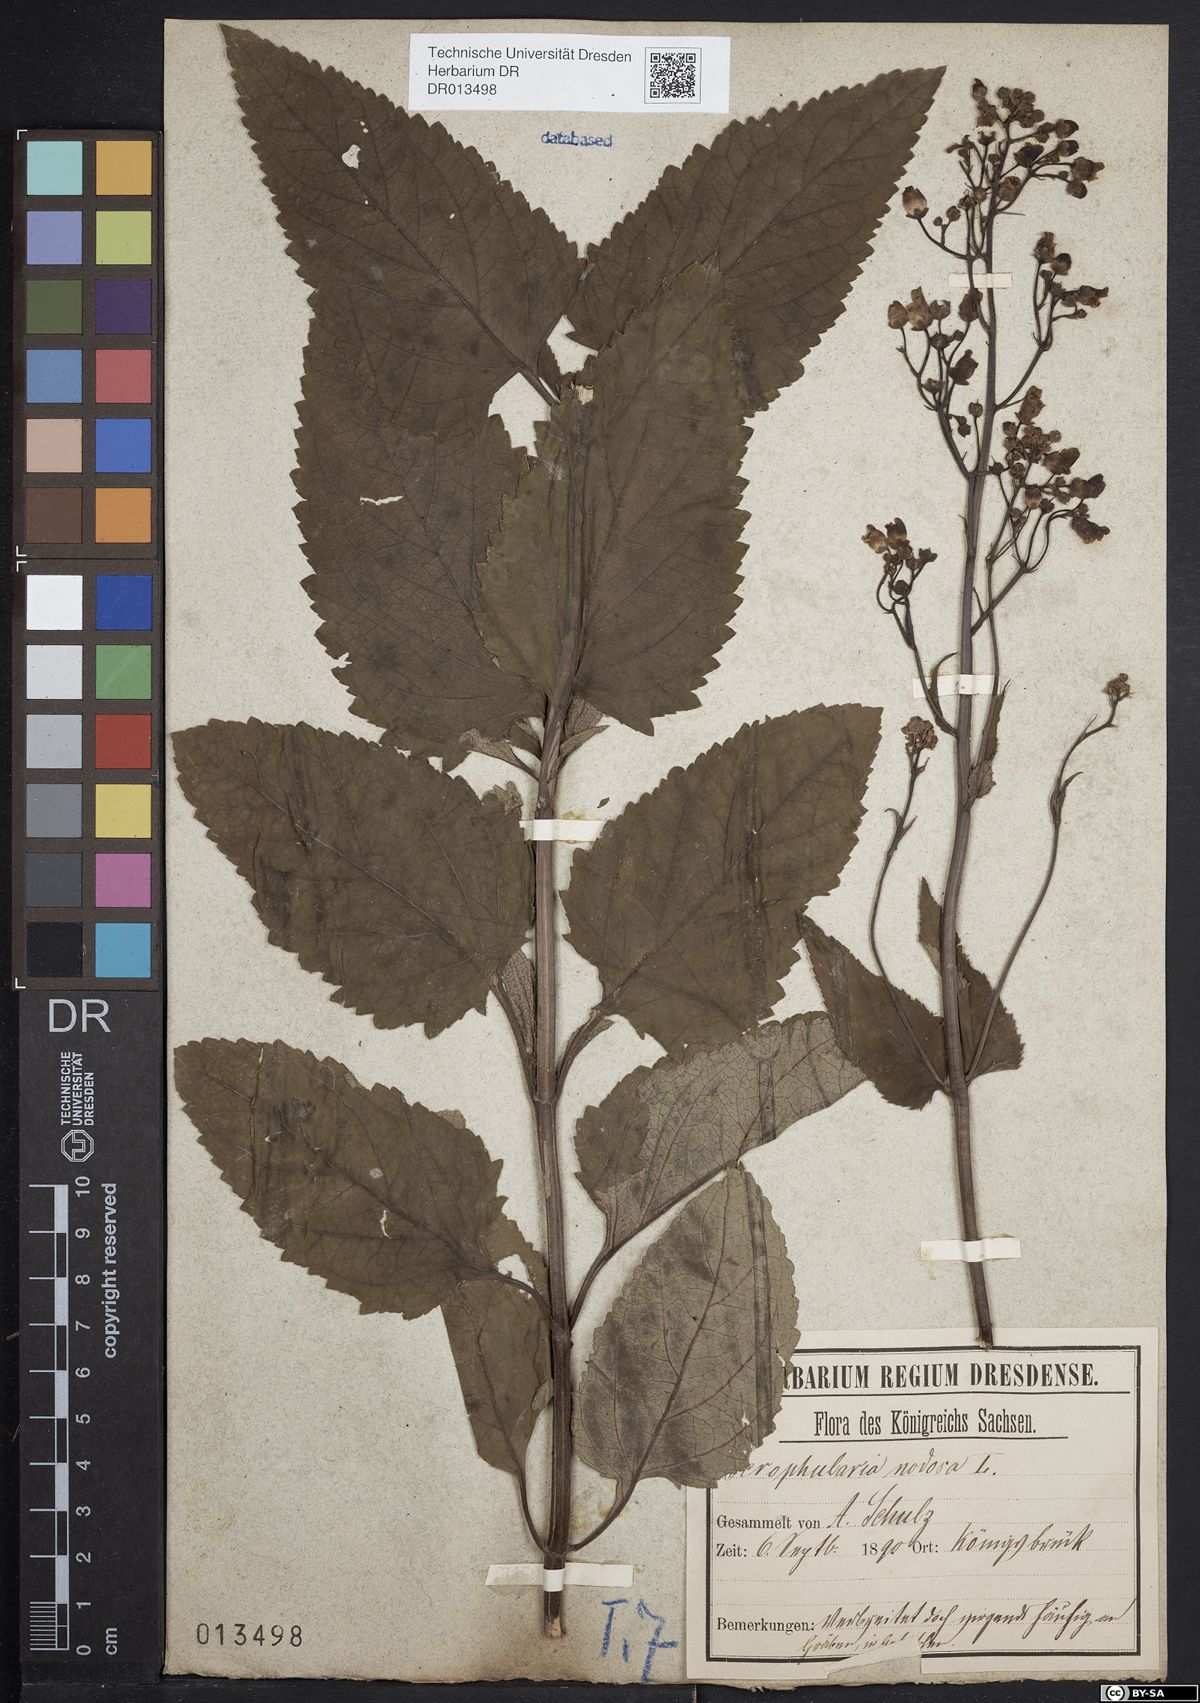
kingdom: Plantae
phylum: Tracheophyta
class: Magnoliopsida
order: Lamiales
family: Scrophulariaceae
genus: Scrophularia
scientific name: Scrophularia nodosa
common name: Common figwort
